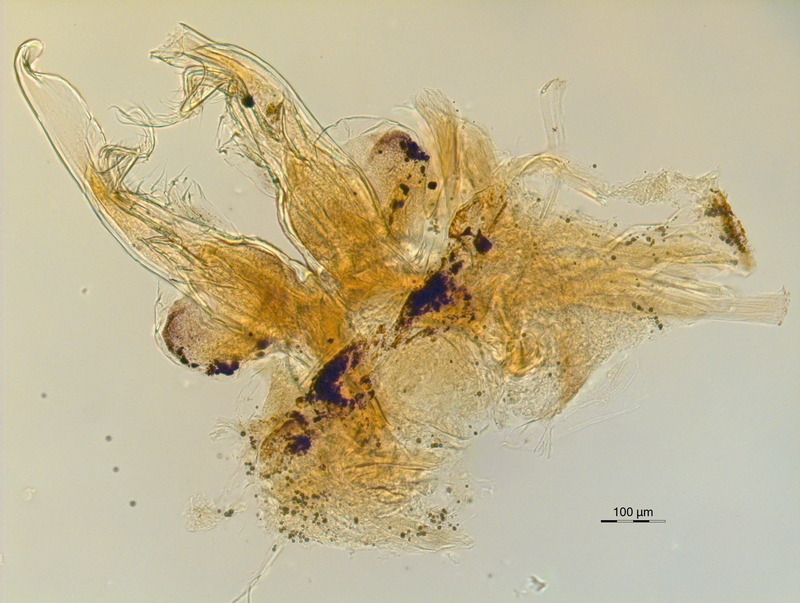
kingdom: Animalia
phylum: Arthropoda
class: Diplopoda
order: Chordeumatida
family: Chordeumatidae
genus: Mycogona
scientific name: Mycogona germanica
